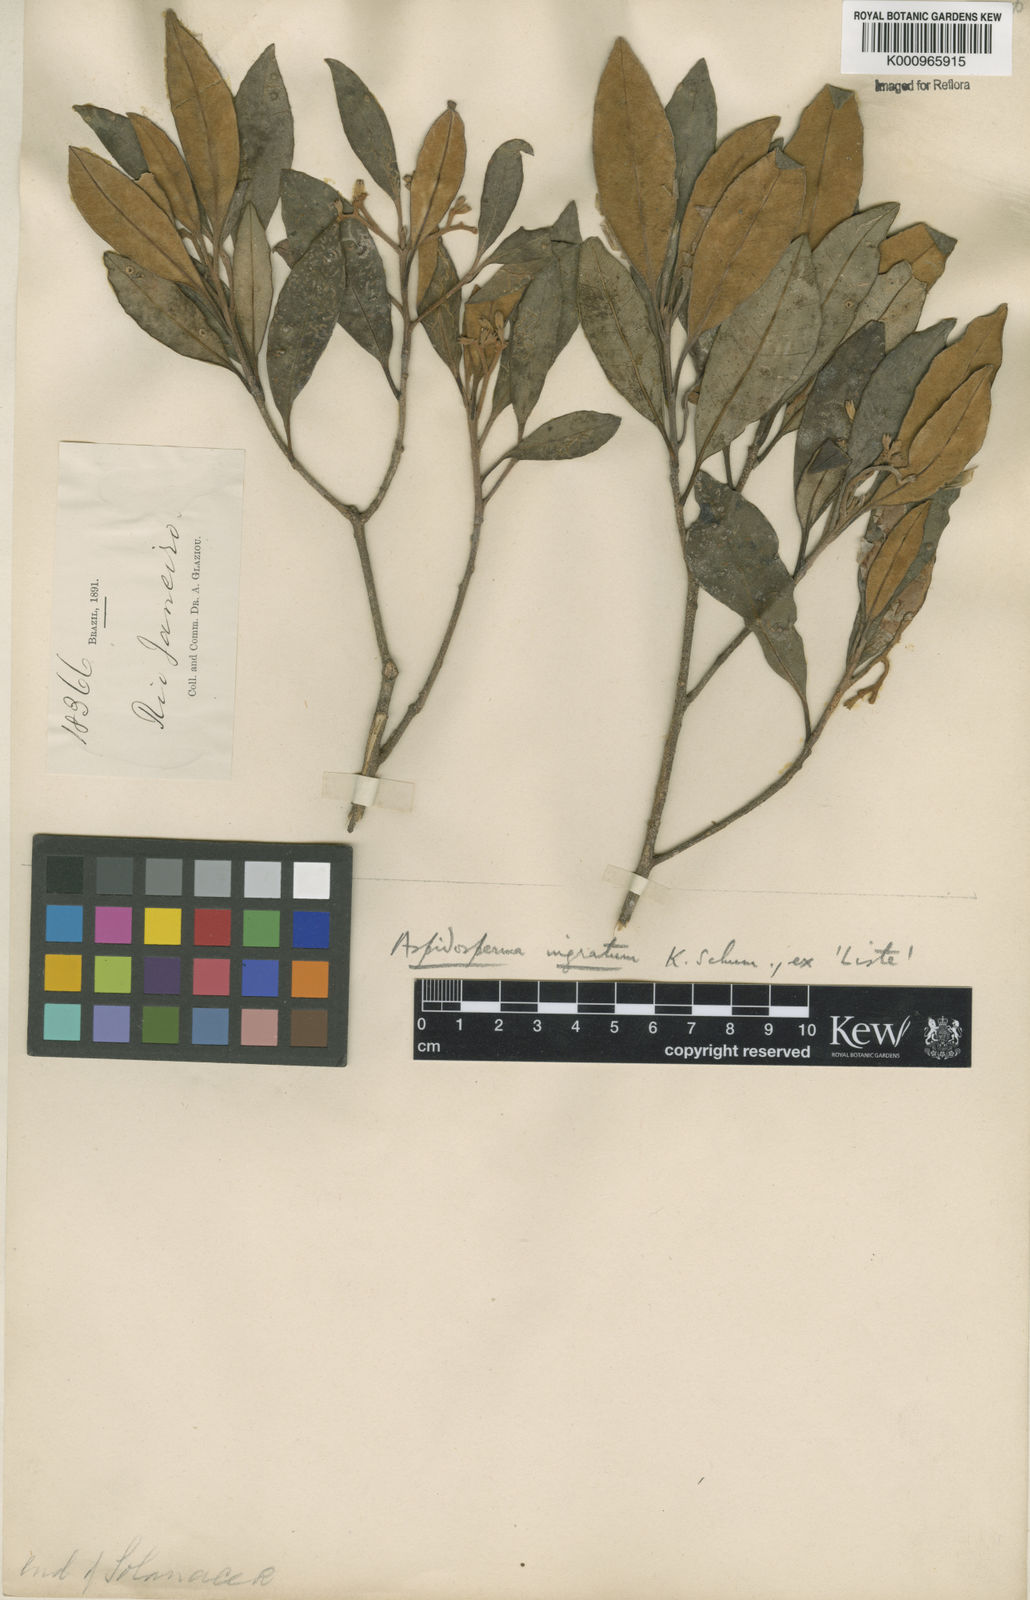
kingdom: Plantae
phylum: Tracheophyta
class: Magnoliopsida
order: Gentianales
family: Apocynaceae
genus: Aspidosperma
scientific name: Aspidosperma
